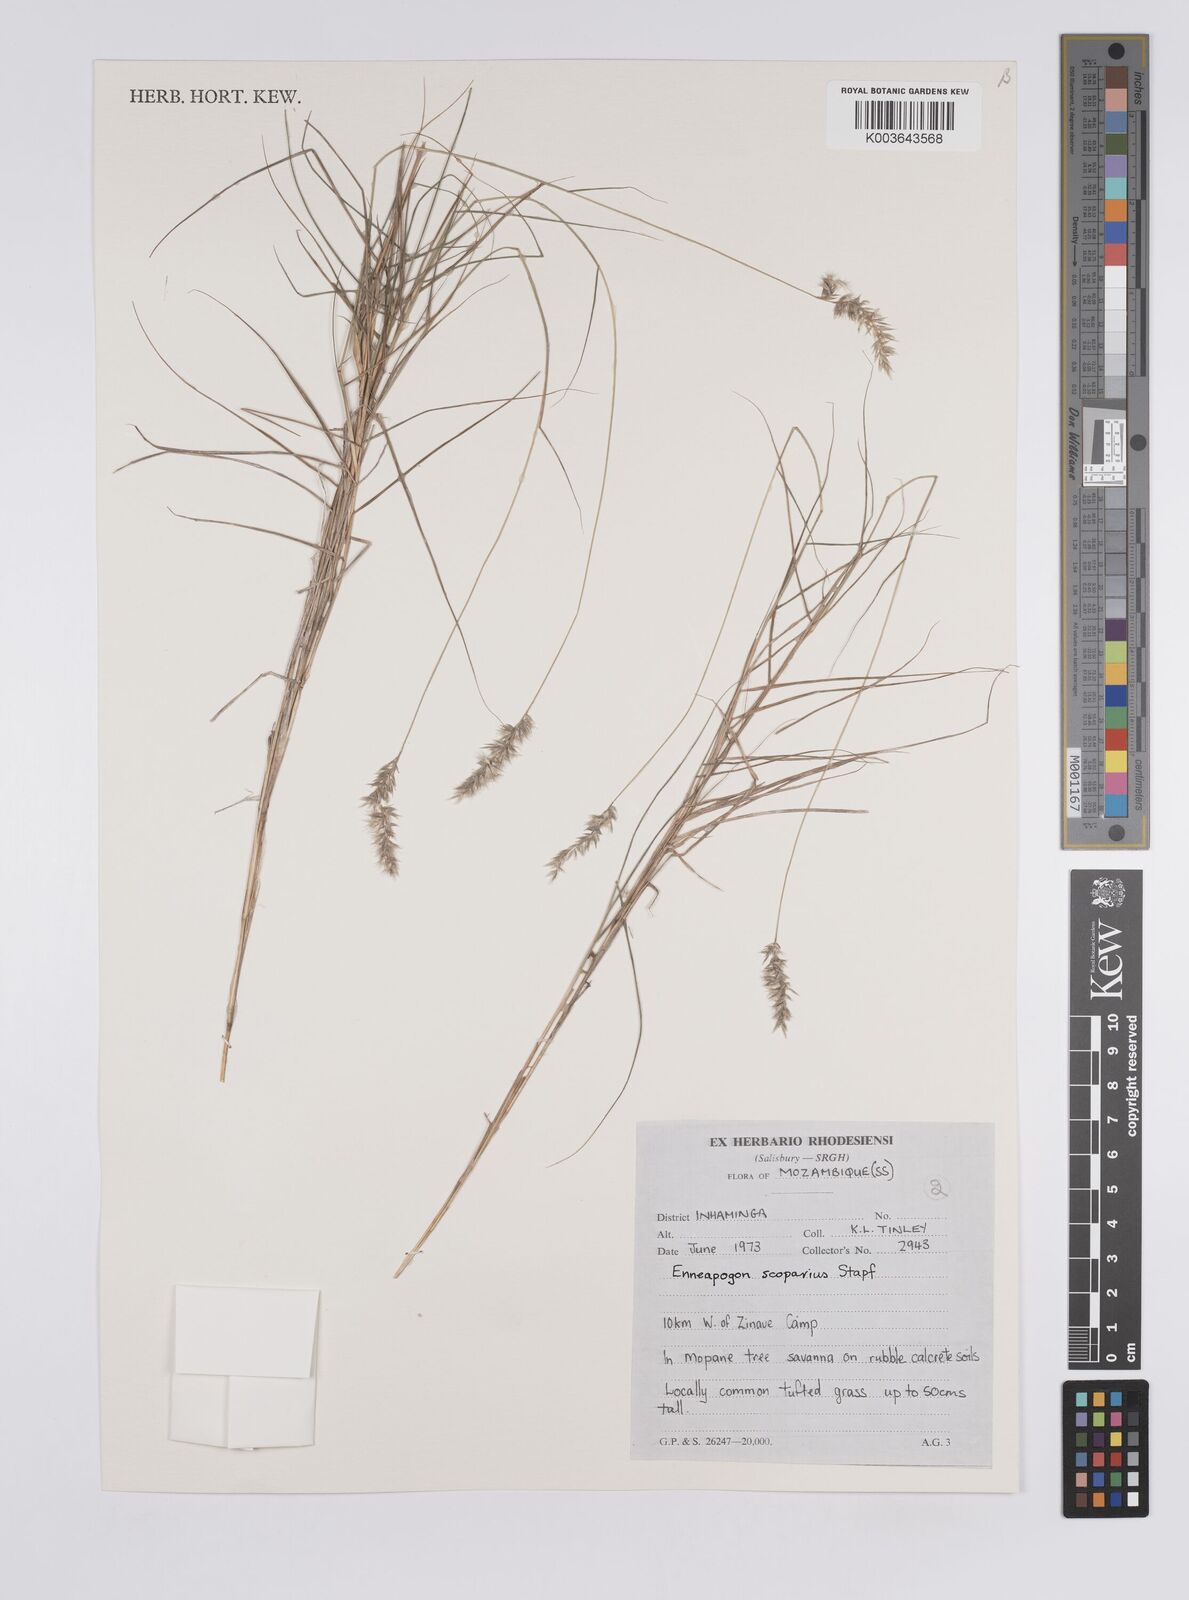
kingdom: Plantae
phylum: Tracheophyta
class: Liliopsida
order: Poales
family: Poaceae
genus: Enneapogon
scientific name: Enneapogon scoparius
